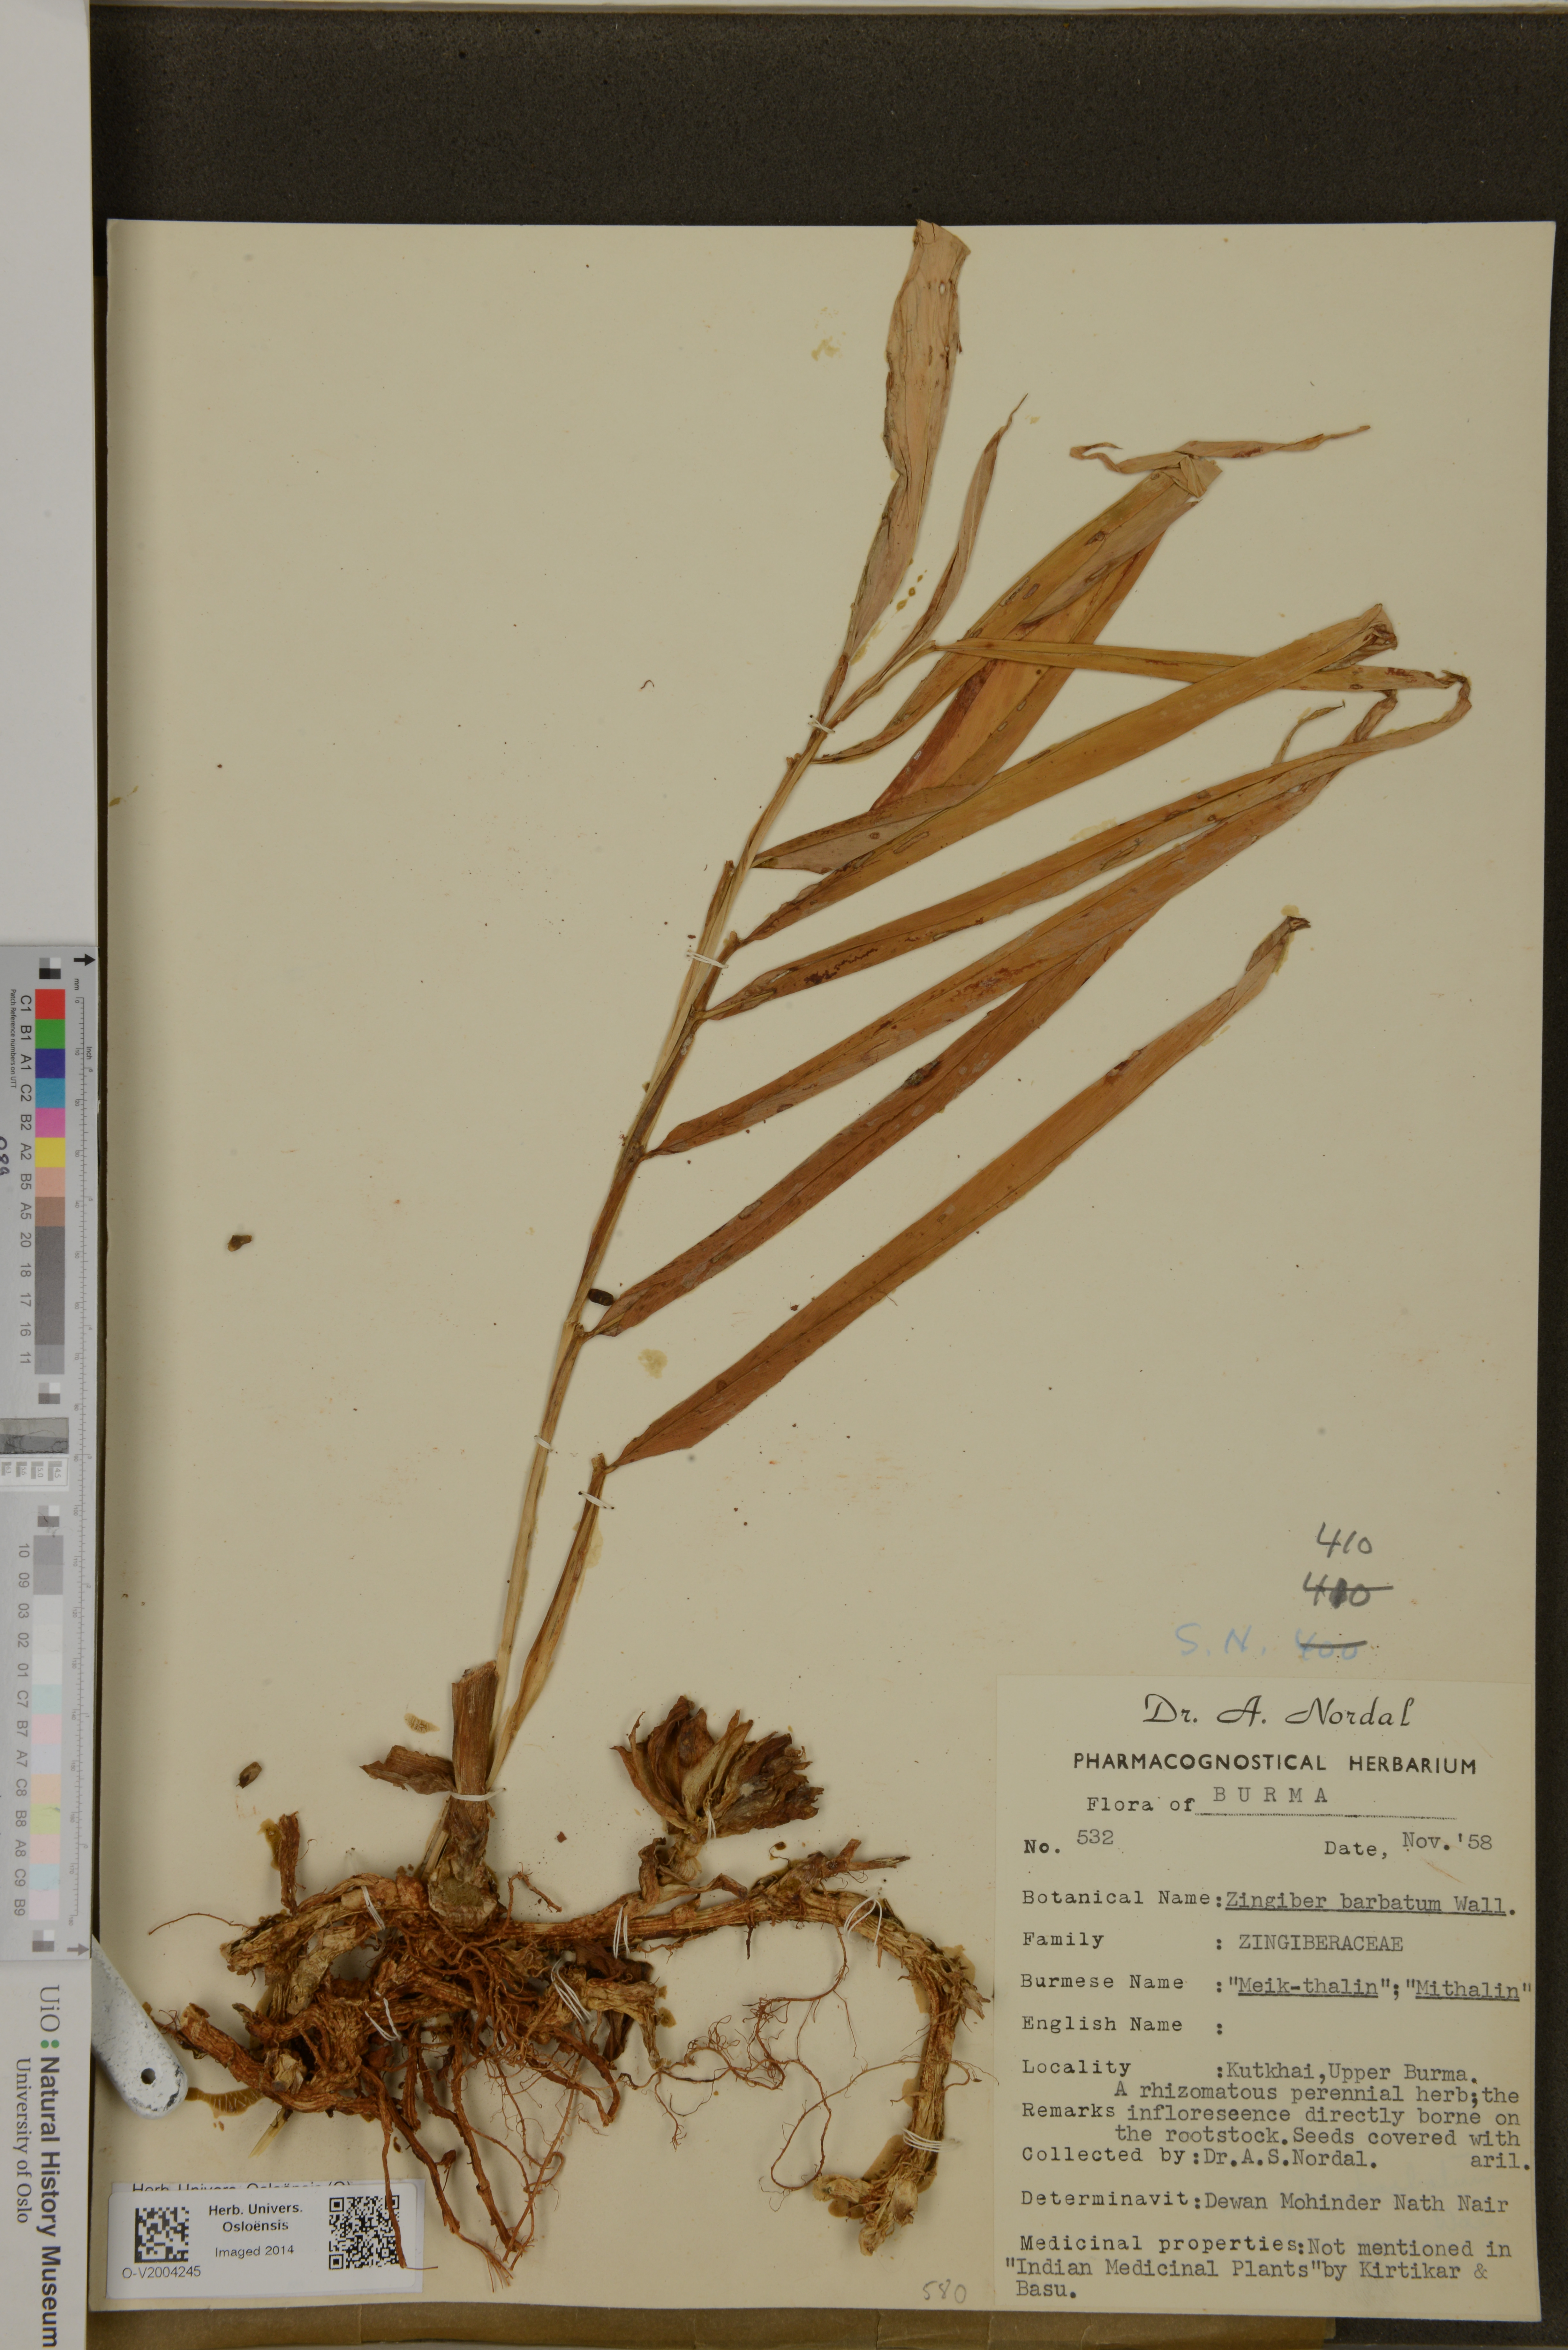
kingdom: Plantae
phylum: Tracheophyta
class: Liliopsida
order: Zingiberales
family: Zingiberaceae
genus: Zingiber
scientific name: Zingiber barbatum
